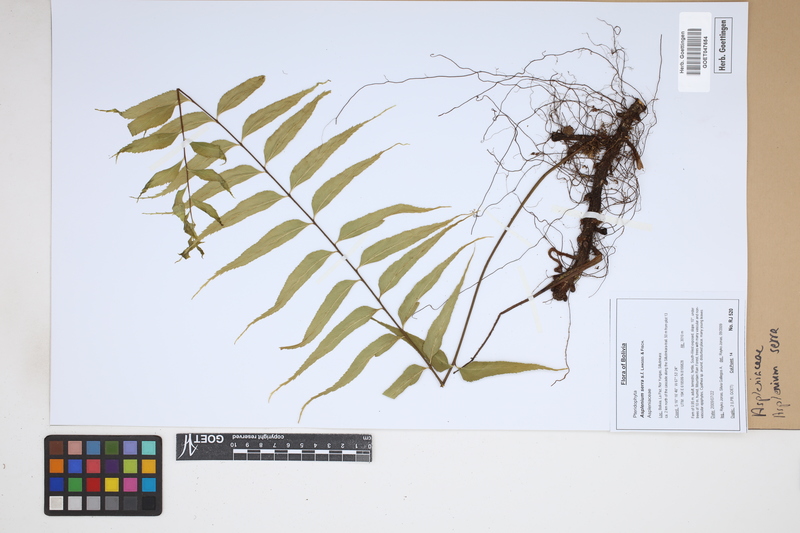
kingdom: Plantae
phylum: Tracheophyta
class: Polypodiopsida
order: Polypodiales
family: Aspleniaceae
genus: Asplenium
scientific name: Asplenium serra
